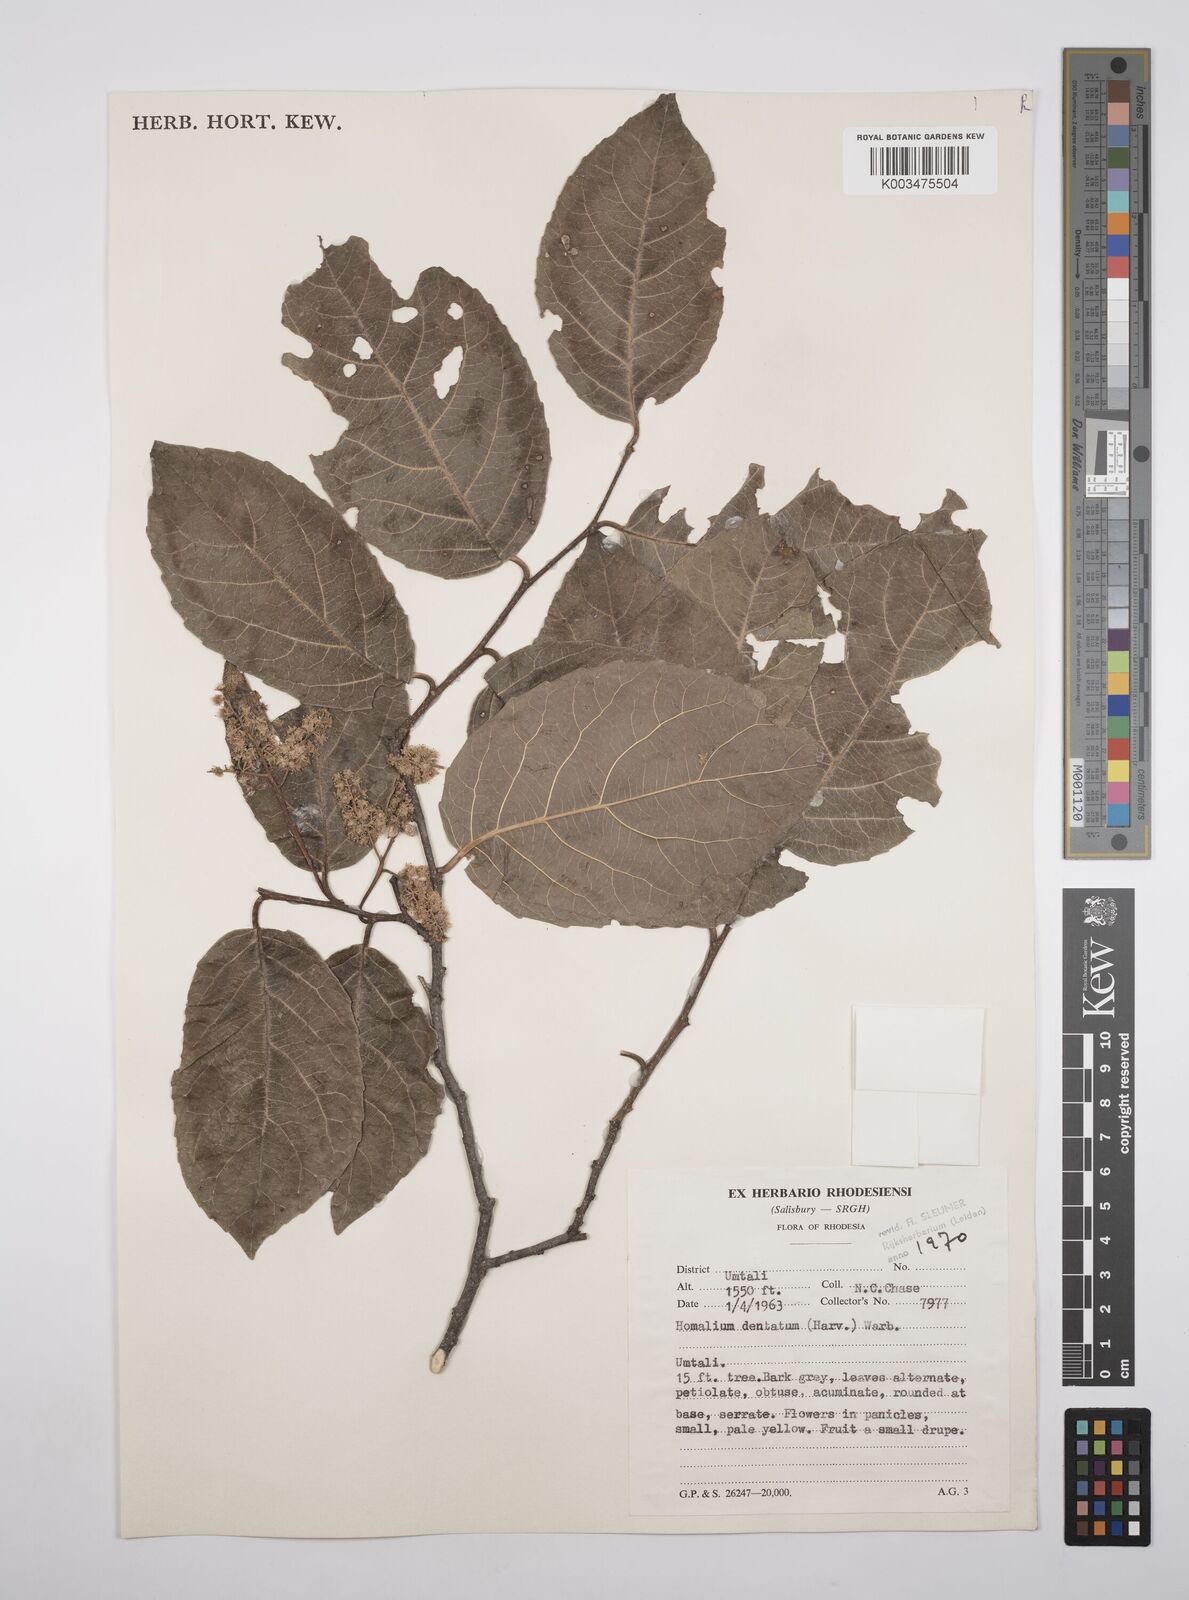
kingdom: Plantae
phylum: Tracheophyta
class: Magnoliopsida
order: Malpighiales
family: Salicaceae
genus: Homalium
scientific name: Homalium dentatum
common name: Brown ironwood
